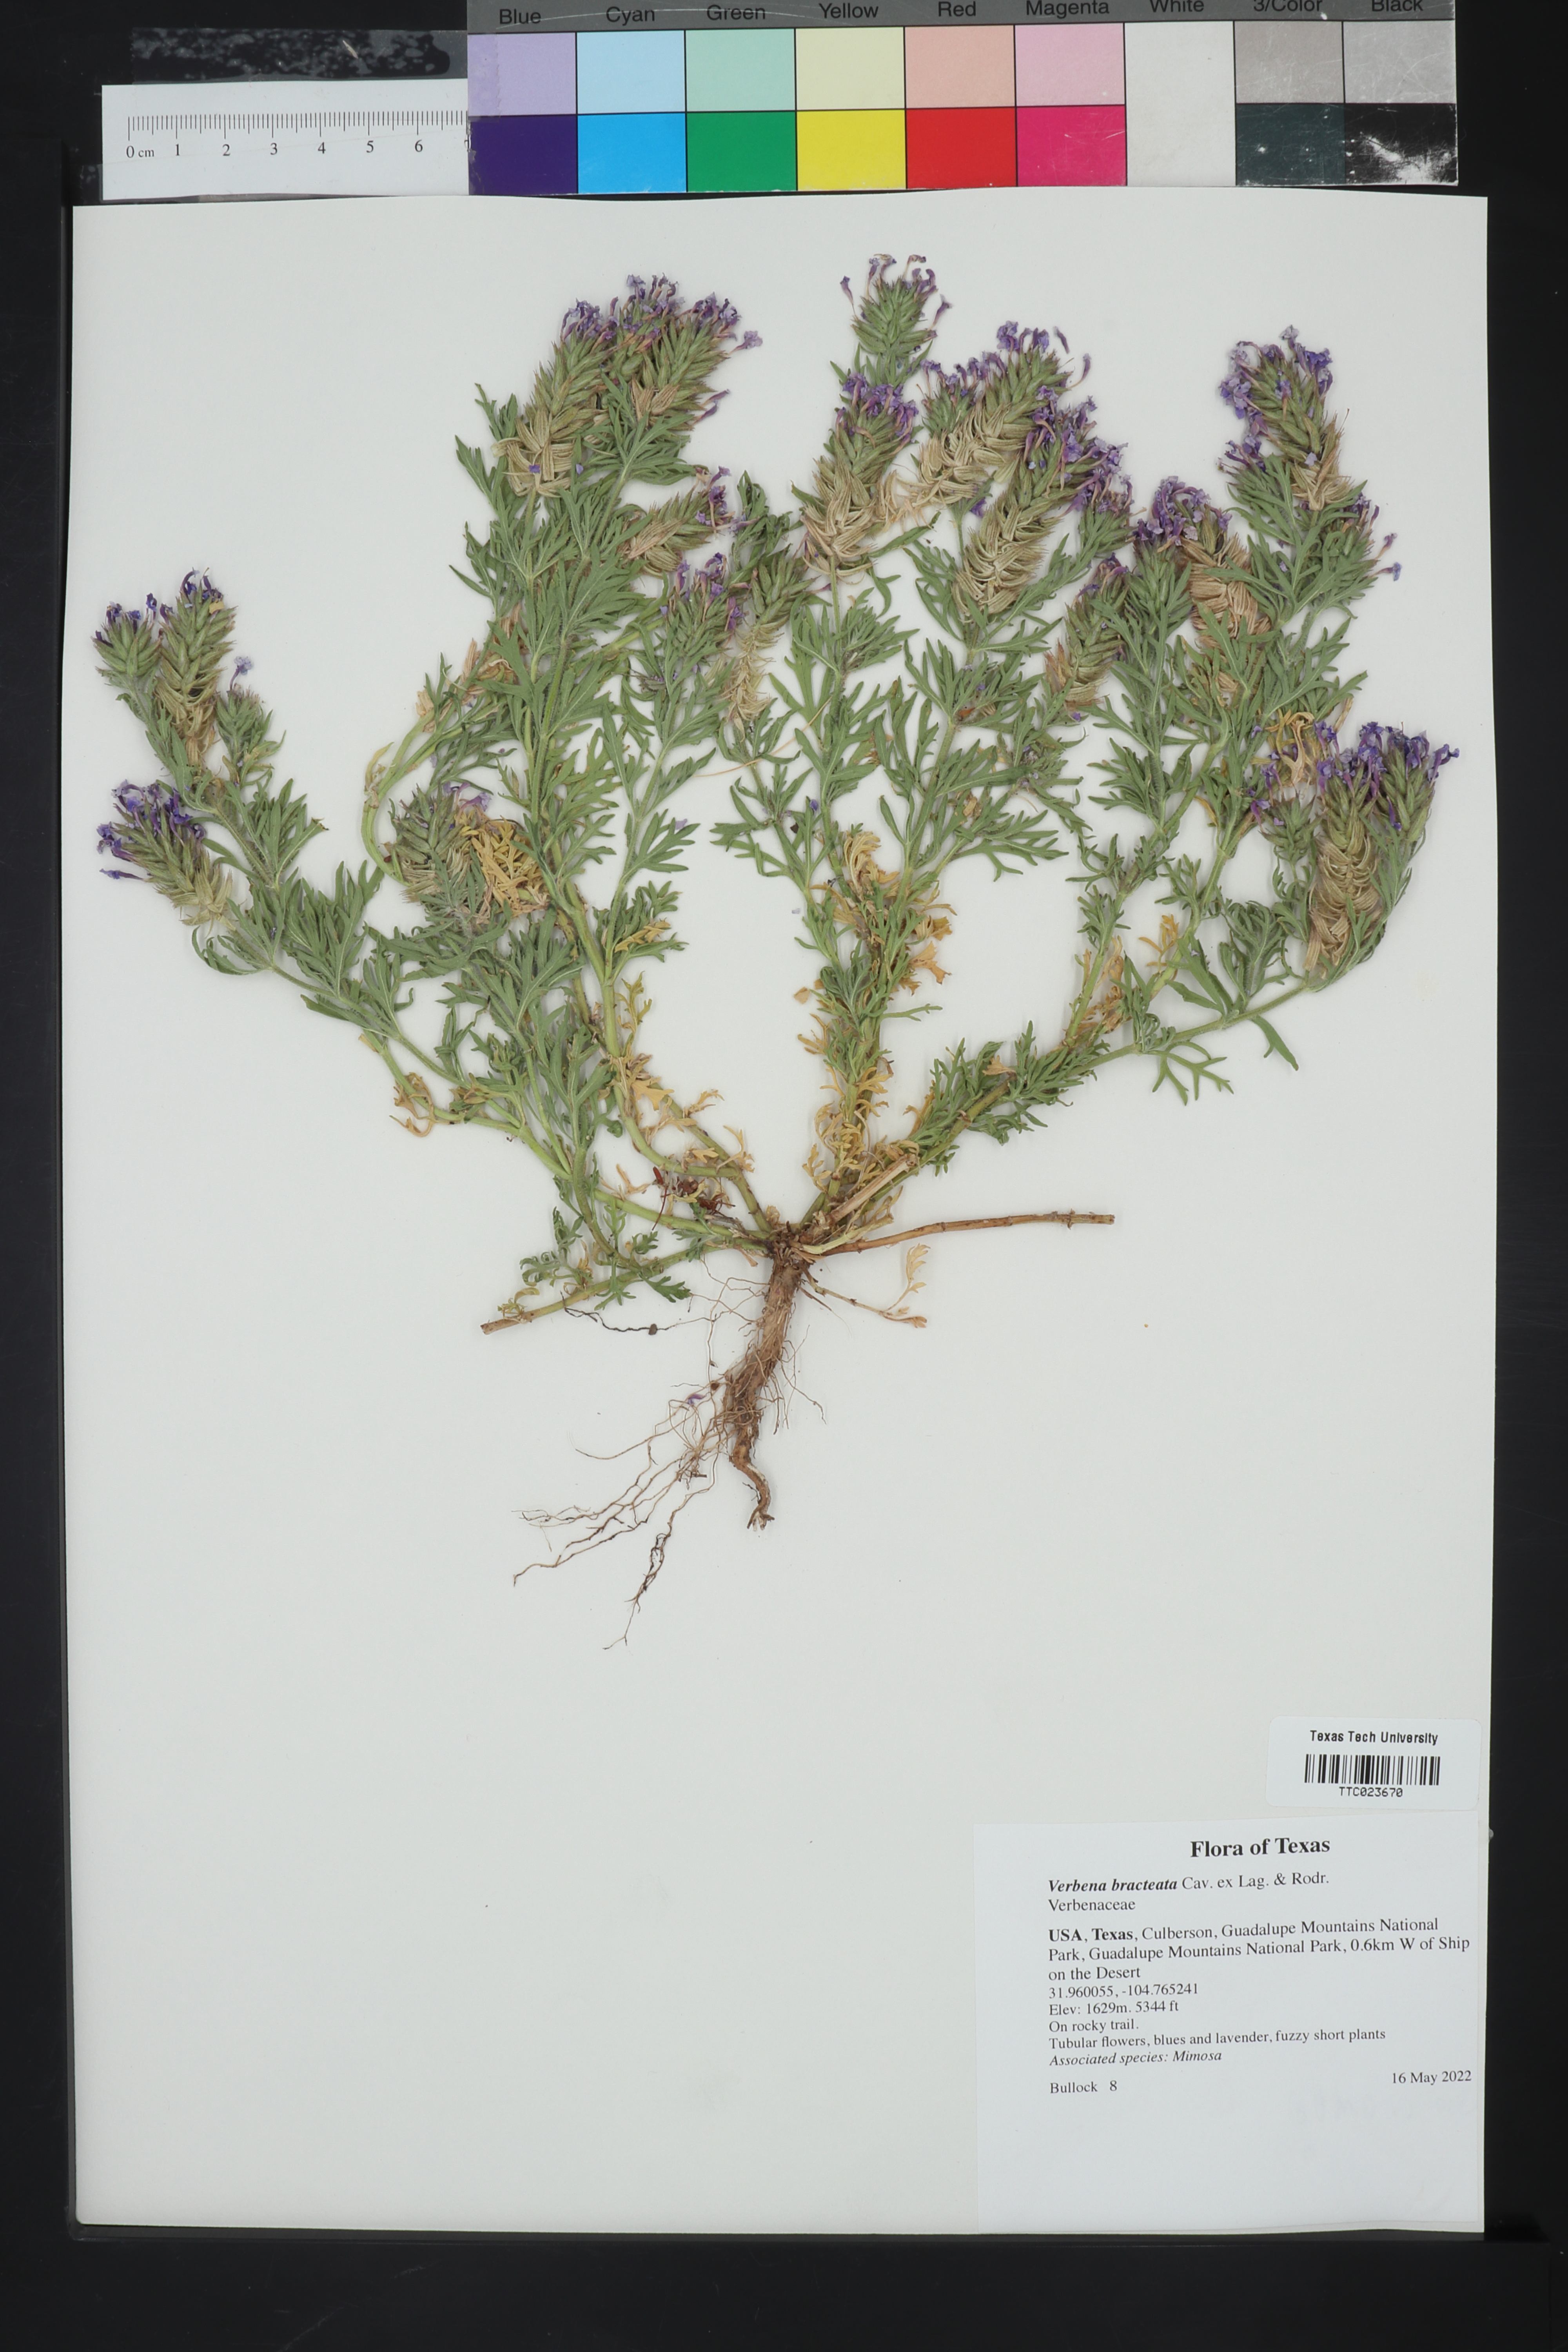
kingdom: Plantae
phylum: Tracheophyta
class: Magnoliopsida
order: Lamiales
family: Verbenaceae
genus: Verbena
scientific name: Verbena bracteata
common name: Bracted vervain
